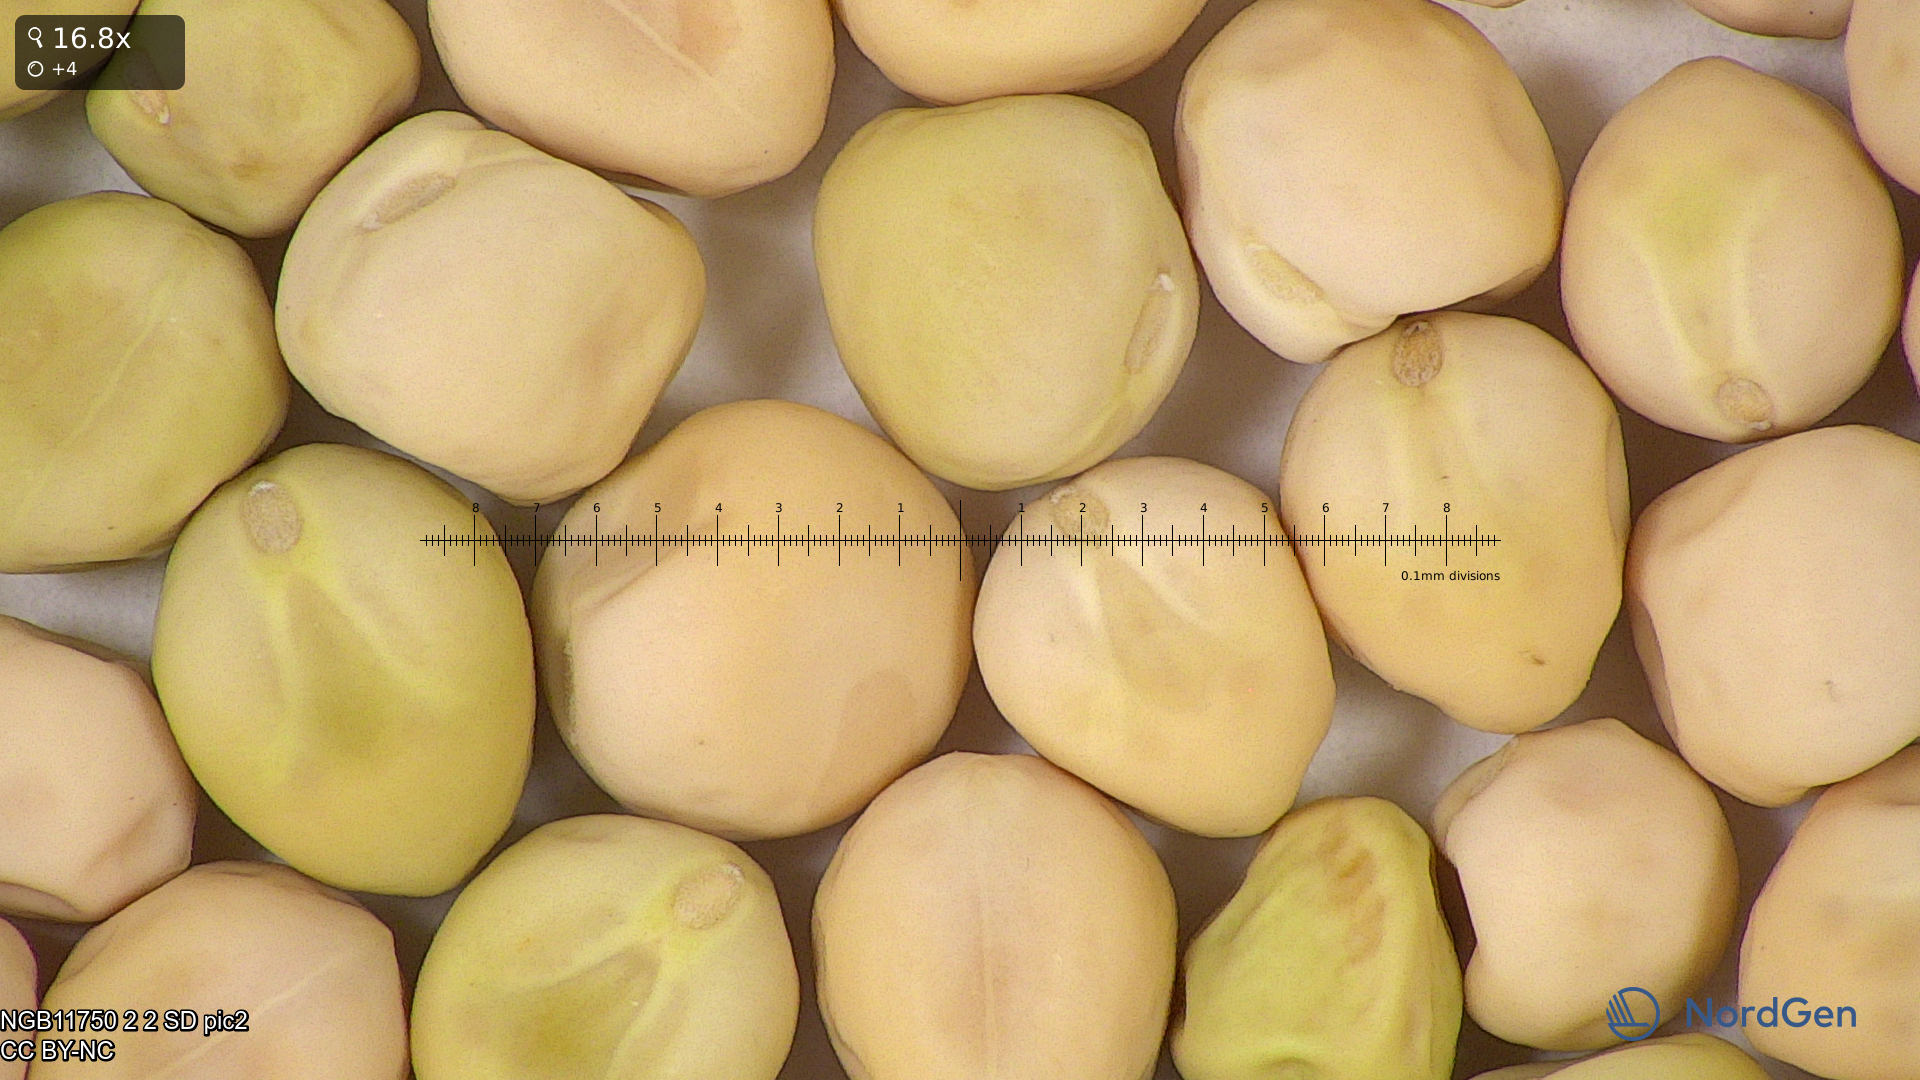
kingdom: Plantae
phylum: Tracheophyta
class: Magnoliopsida
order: Fabales
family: Fabaceae
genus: Lathyrus
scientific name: Lathyrus oleraceus
